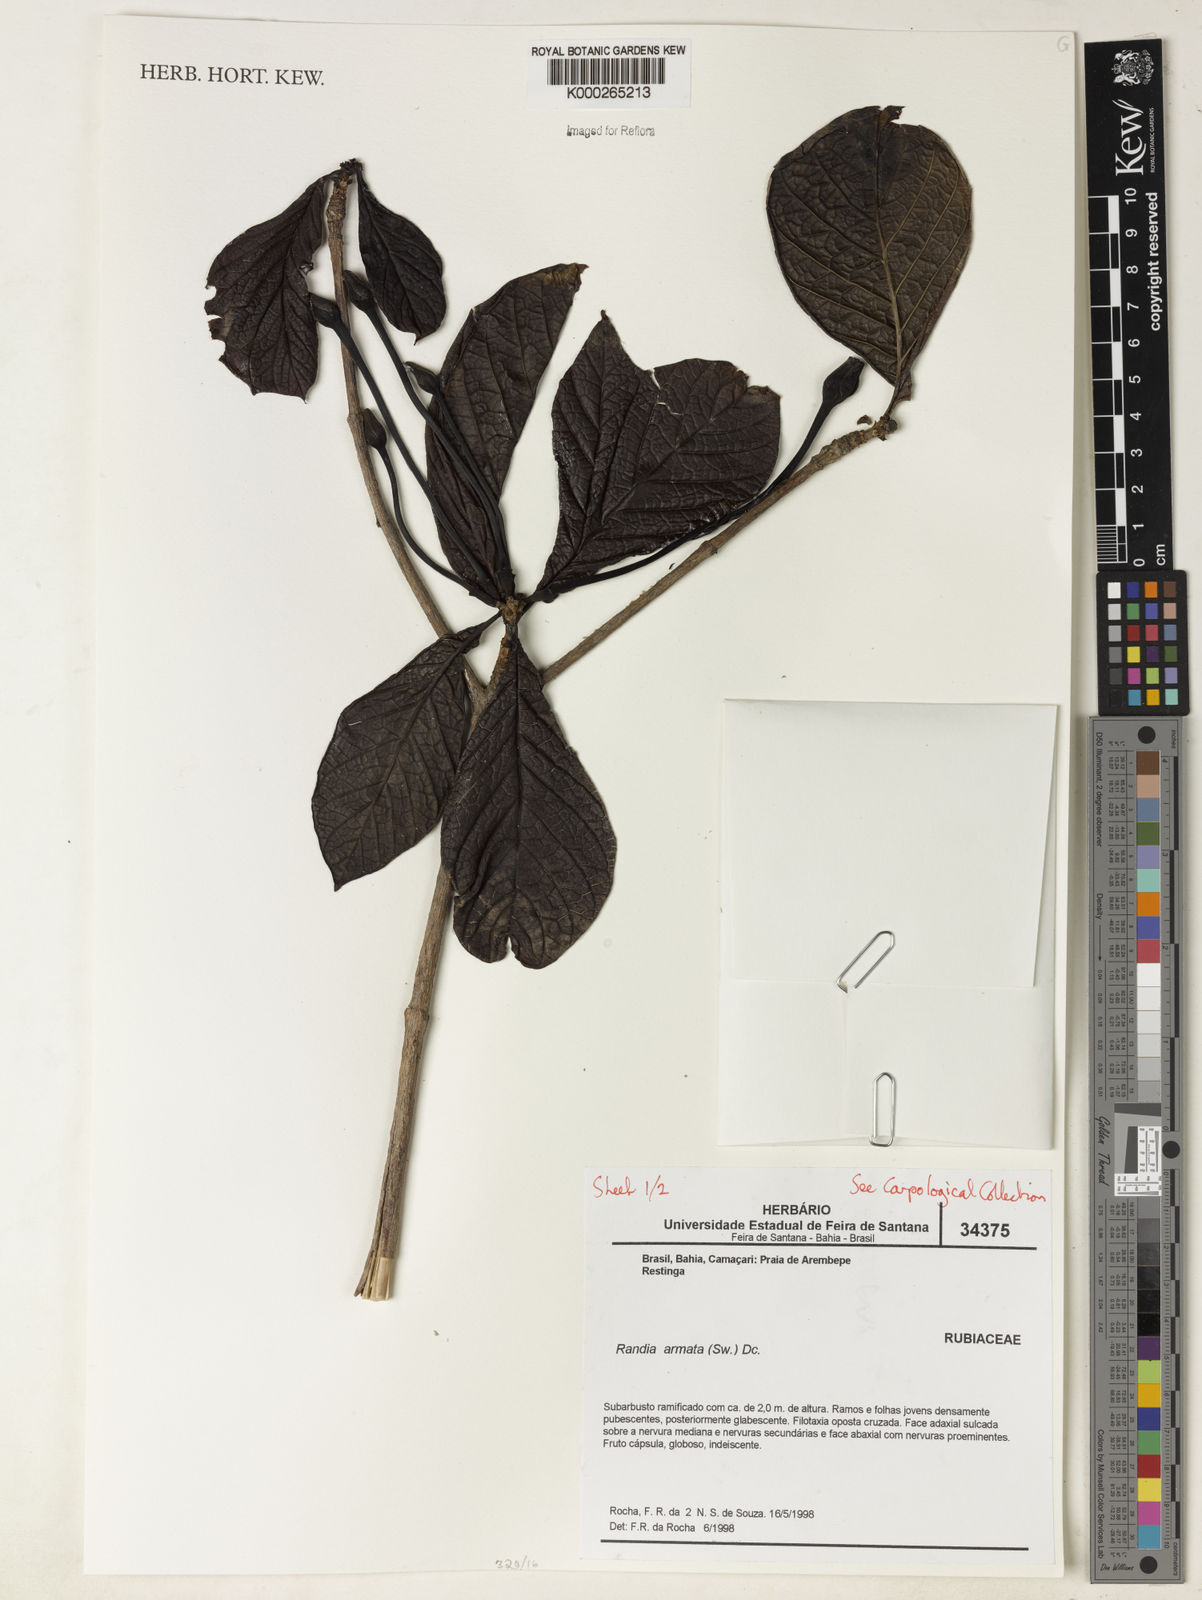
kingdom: Plantae
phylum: Tracheophyta
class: Magnoliopsida
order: Gentianales
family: Rubiaceae
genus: Randia
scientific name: Randia armata
